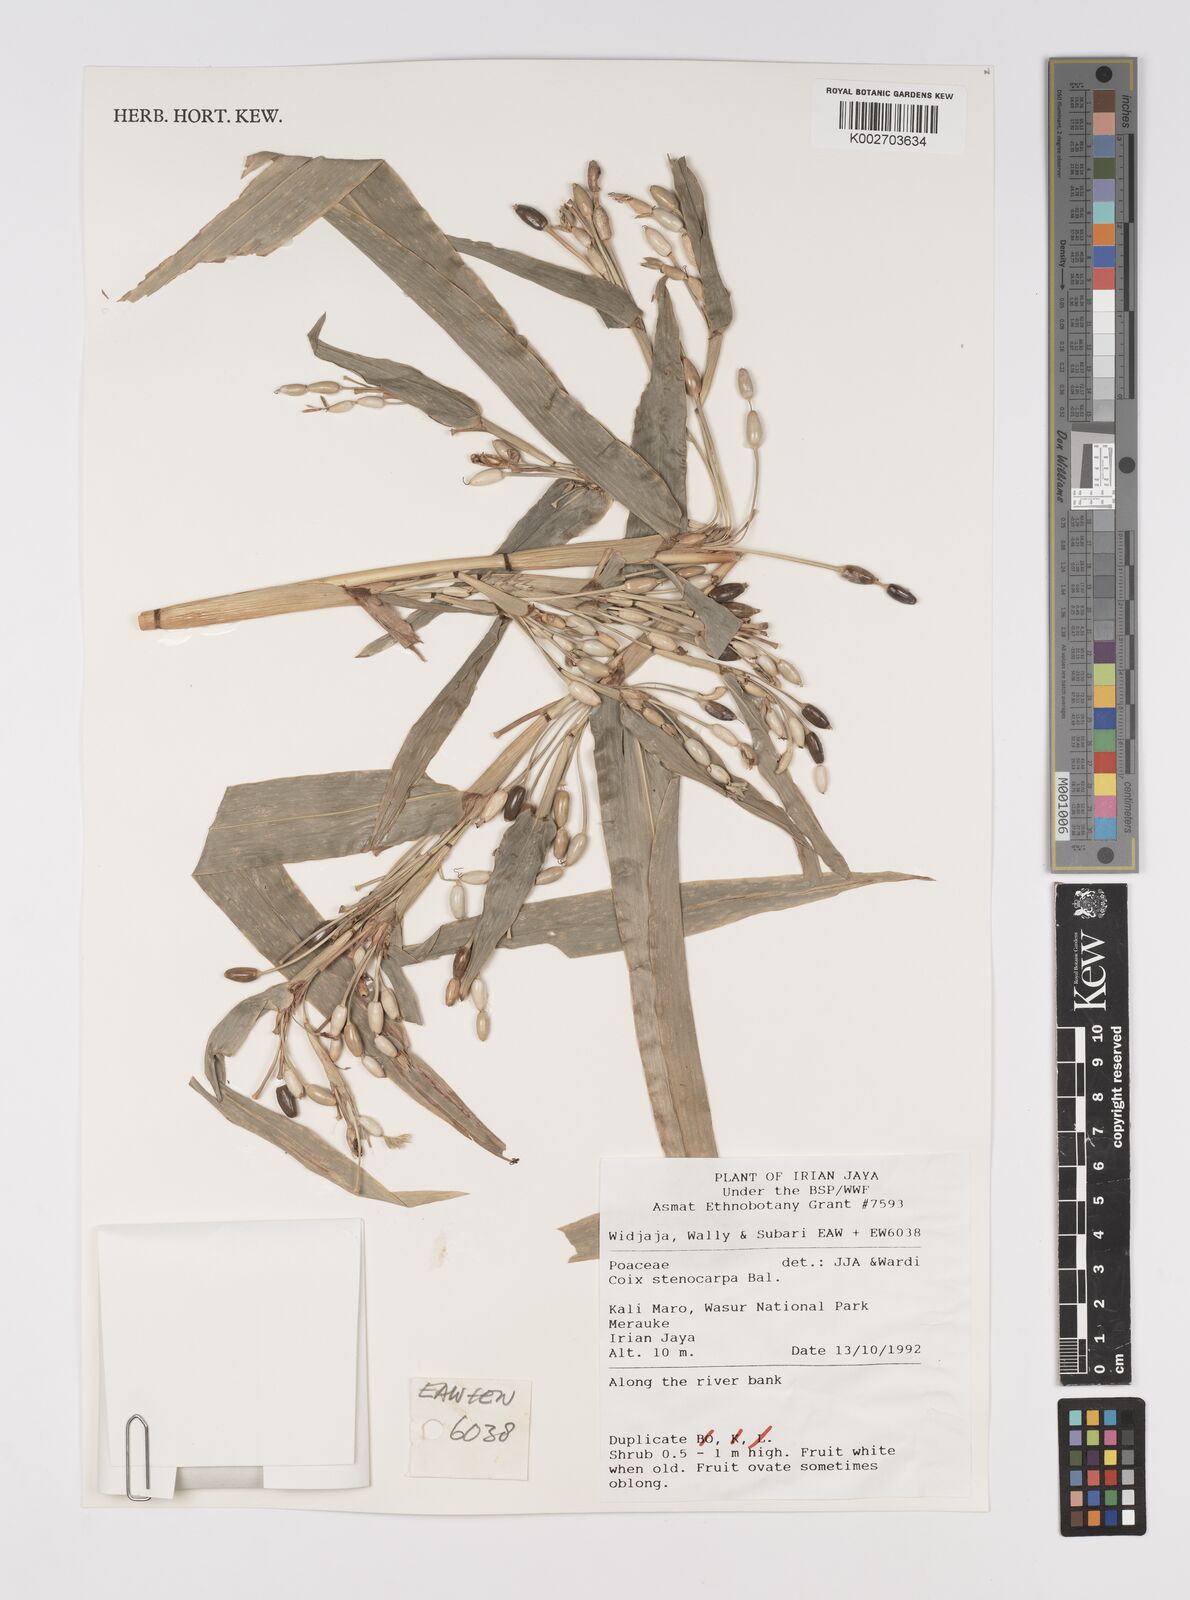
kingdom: Plantae
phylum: Tracheophyta
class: Liliopsida
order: Poales
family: Poaceae
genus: Coix
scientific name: Coix lacryma-jobi
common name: Job's tears
